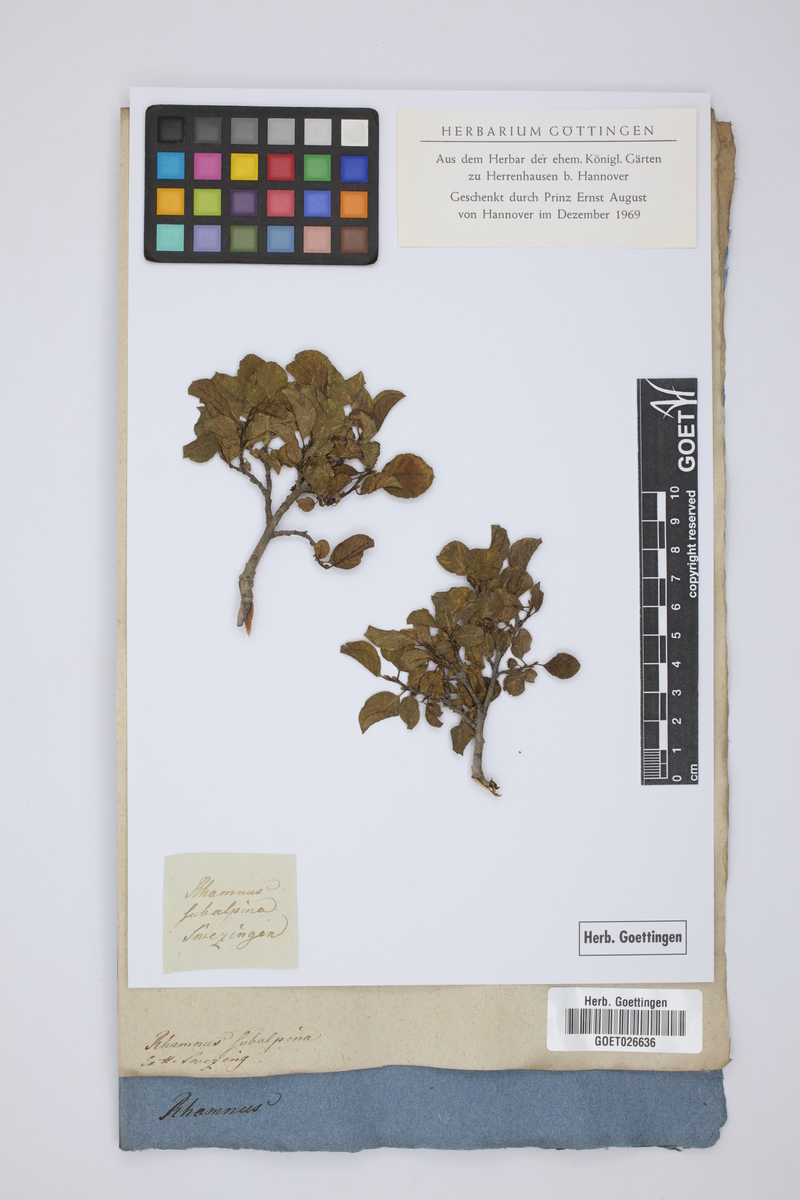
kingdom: Plantae
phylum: Tracheophyta
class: Magnoliopsida
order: Rosales
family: Rhamnaceae
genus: Rhamnus
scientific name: Rhamnus
